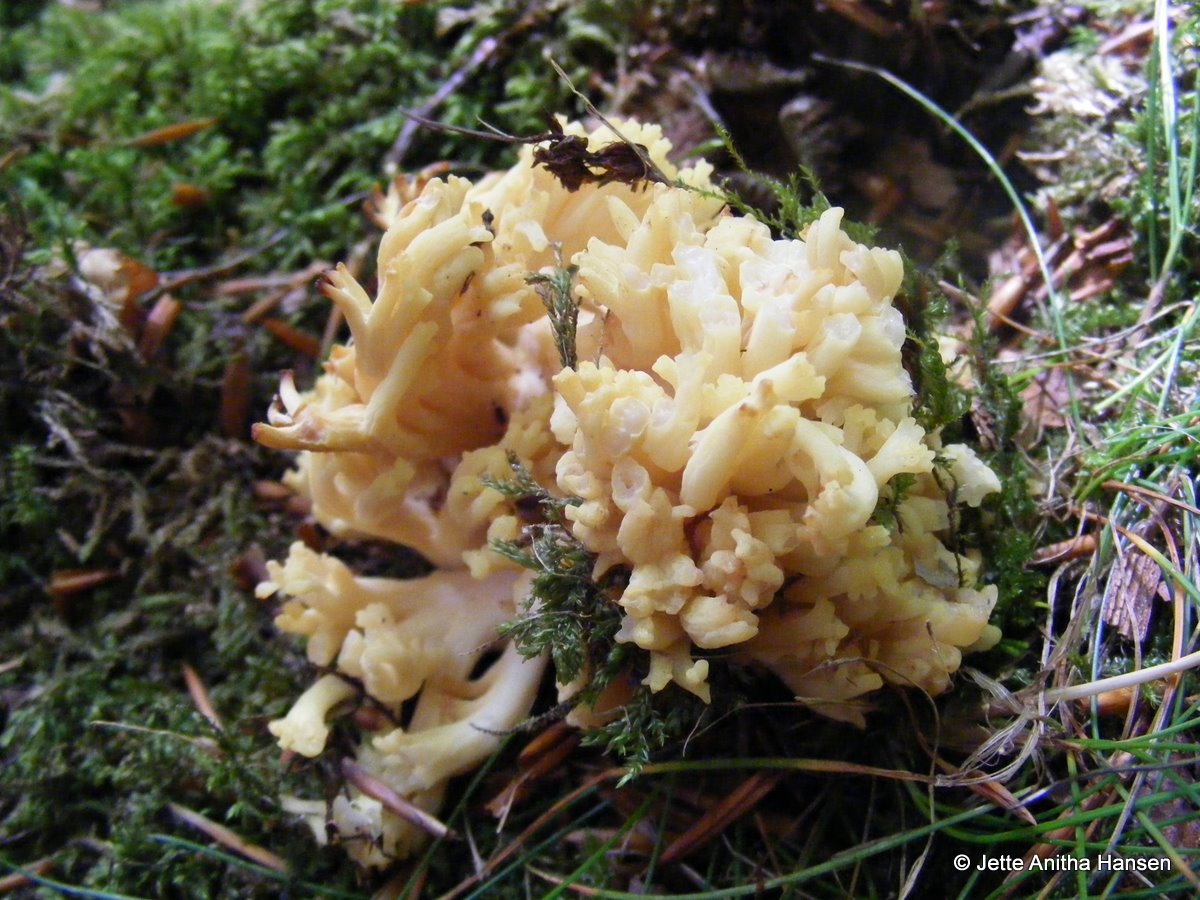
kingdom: Fungi
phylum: Basidiomycota
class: Agaricomycetes
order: Gomphales
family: Gomphaceae
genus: Ramaria
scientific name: Ramaria sanguinea
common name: blodplettet koralsvamp
